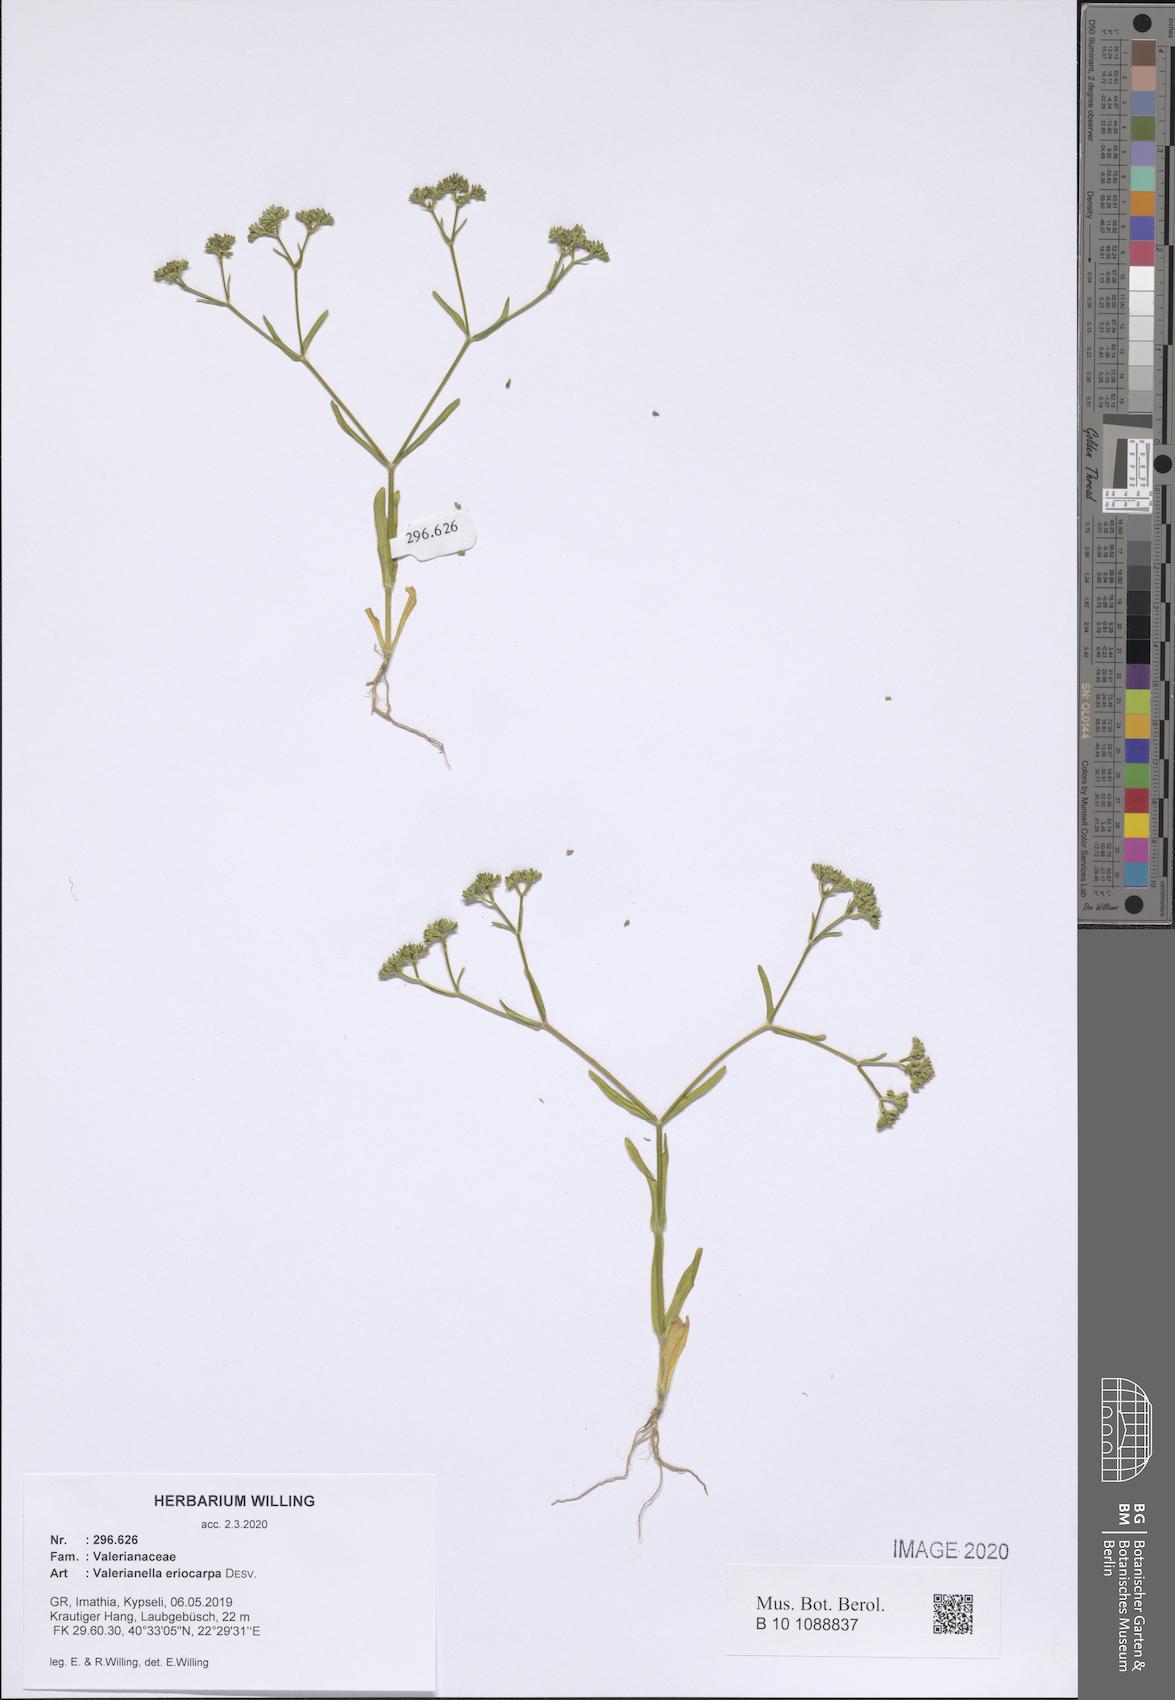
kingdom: Plantae
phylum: Tracheophyta
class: Magnoliopsida
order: Dipsacales
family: Caprifoliaceae
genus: Valerianella
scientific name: Valerianella eriocarpa
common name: Hairy-fruited cornsalad
